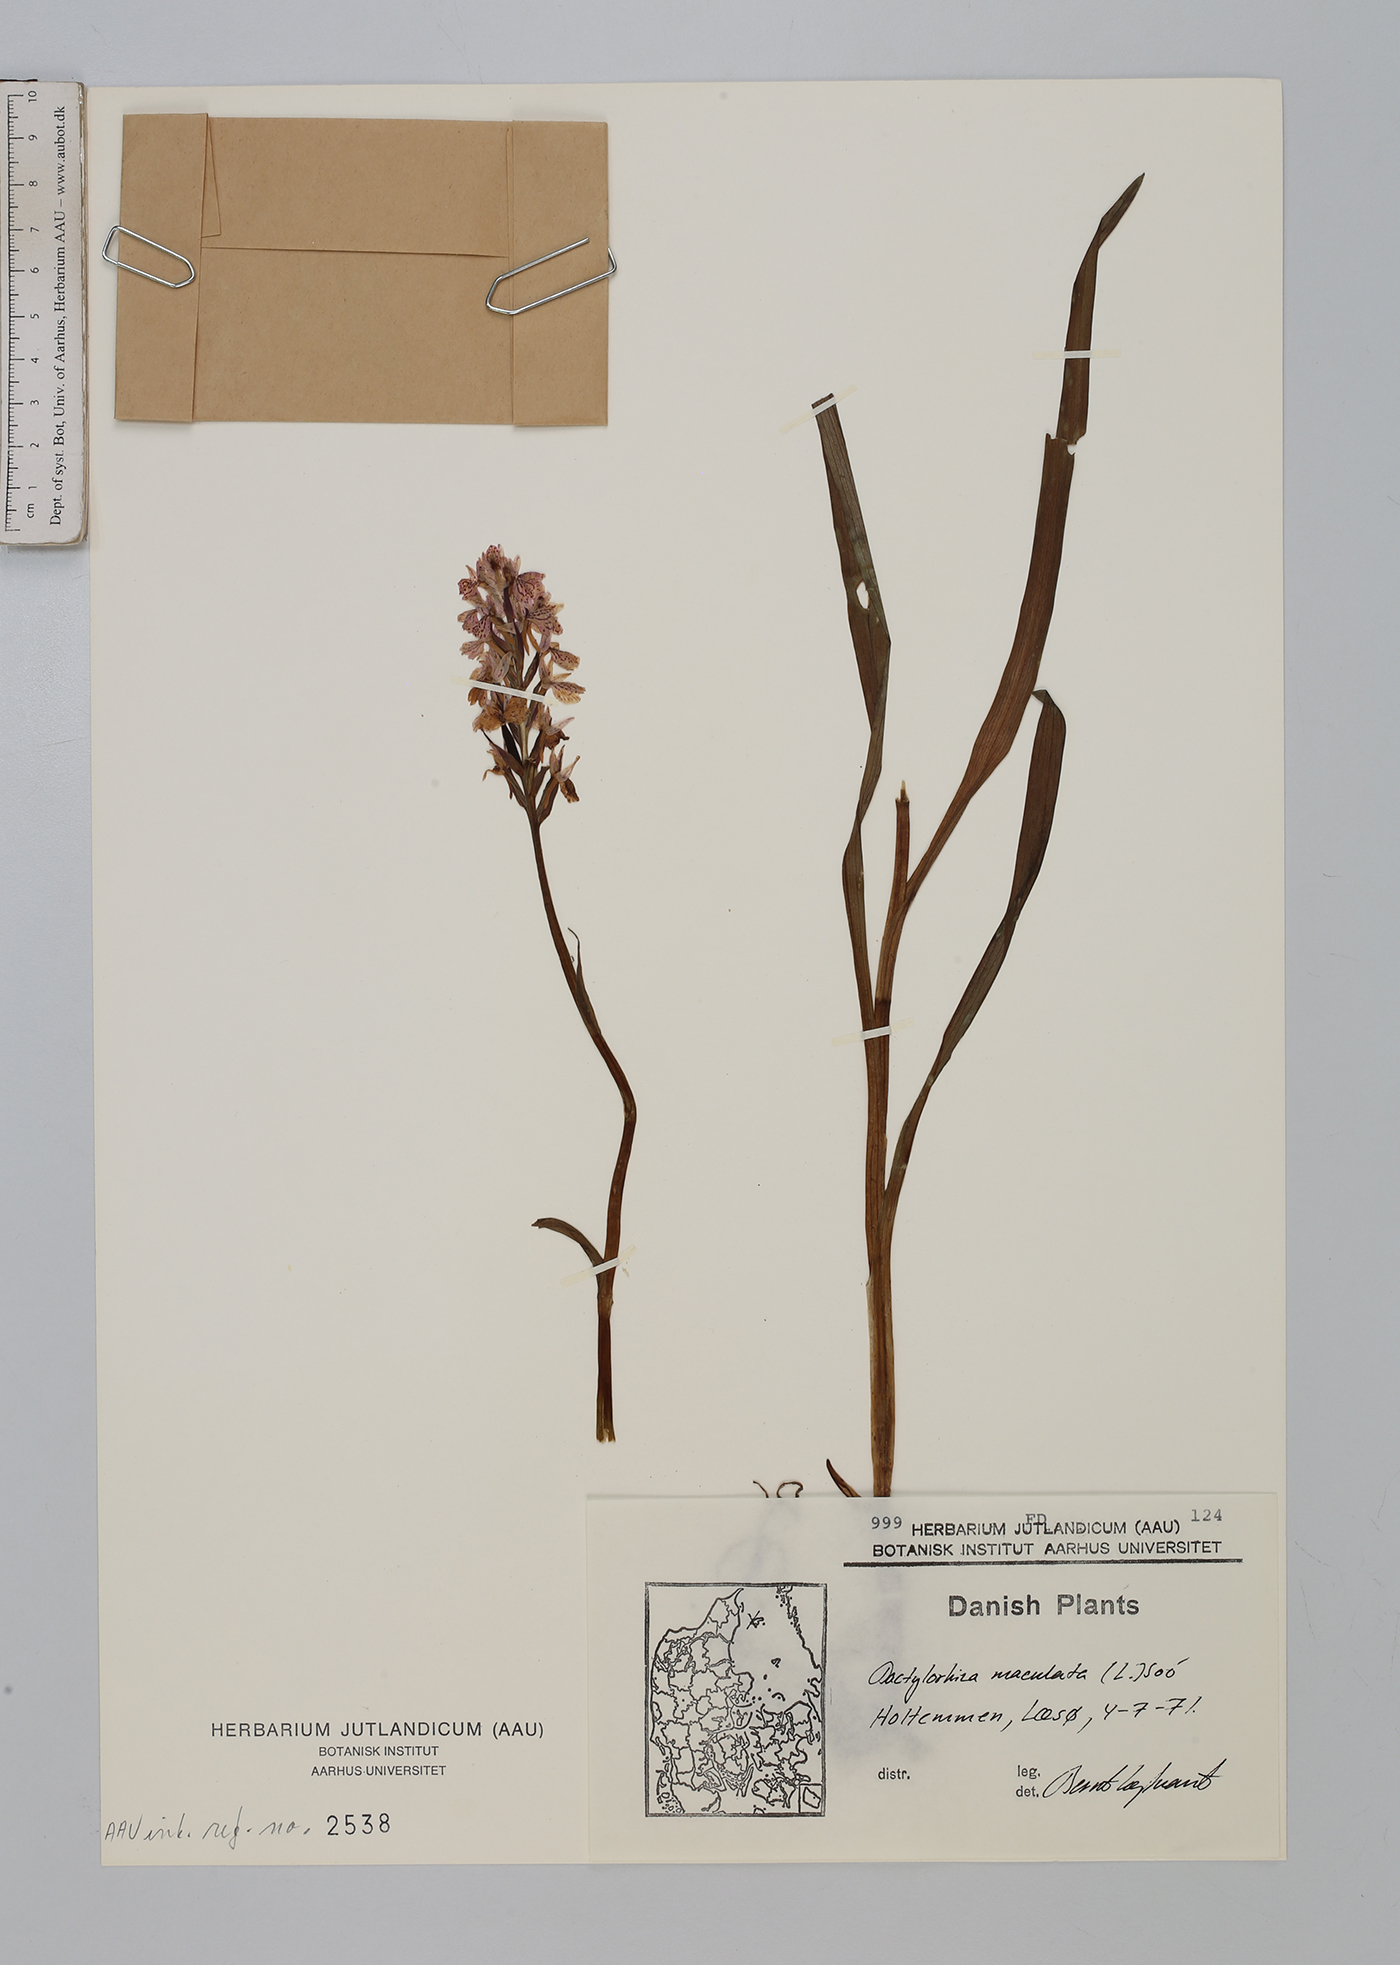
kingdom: Plantae
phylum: Tracheophyta
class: Liliopsida
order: Asparagales
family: Orchidaceae
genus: Dactylorhiza
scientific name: Dactylorhiza maculata
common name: Heath spotted-orchid
